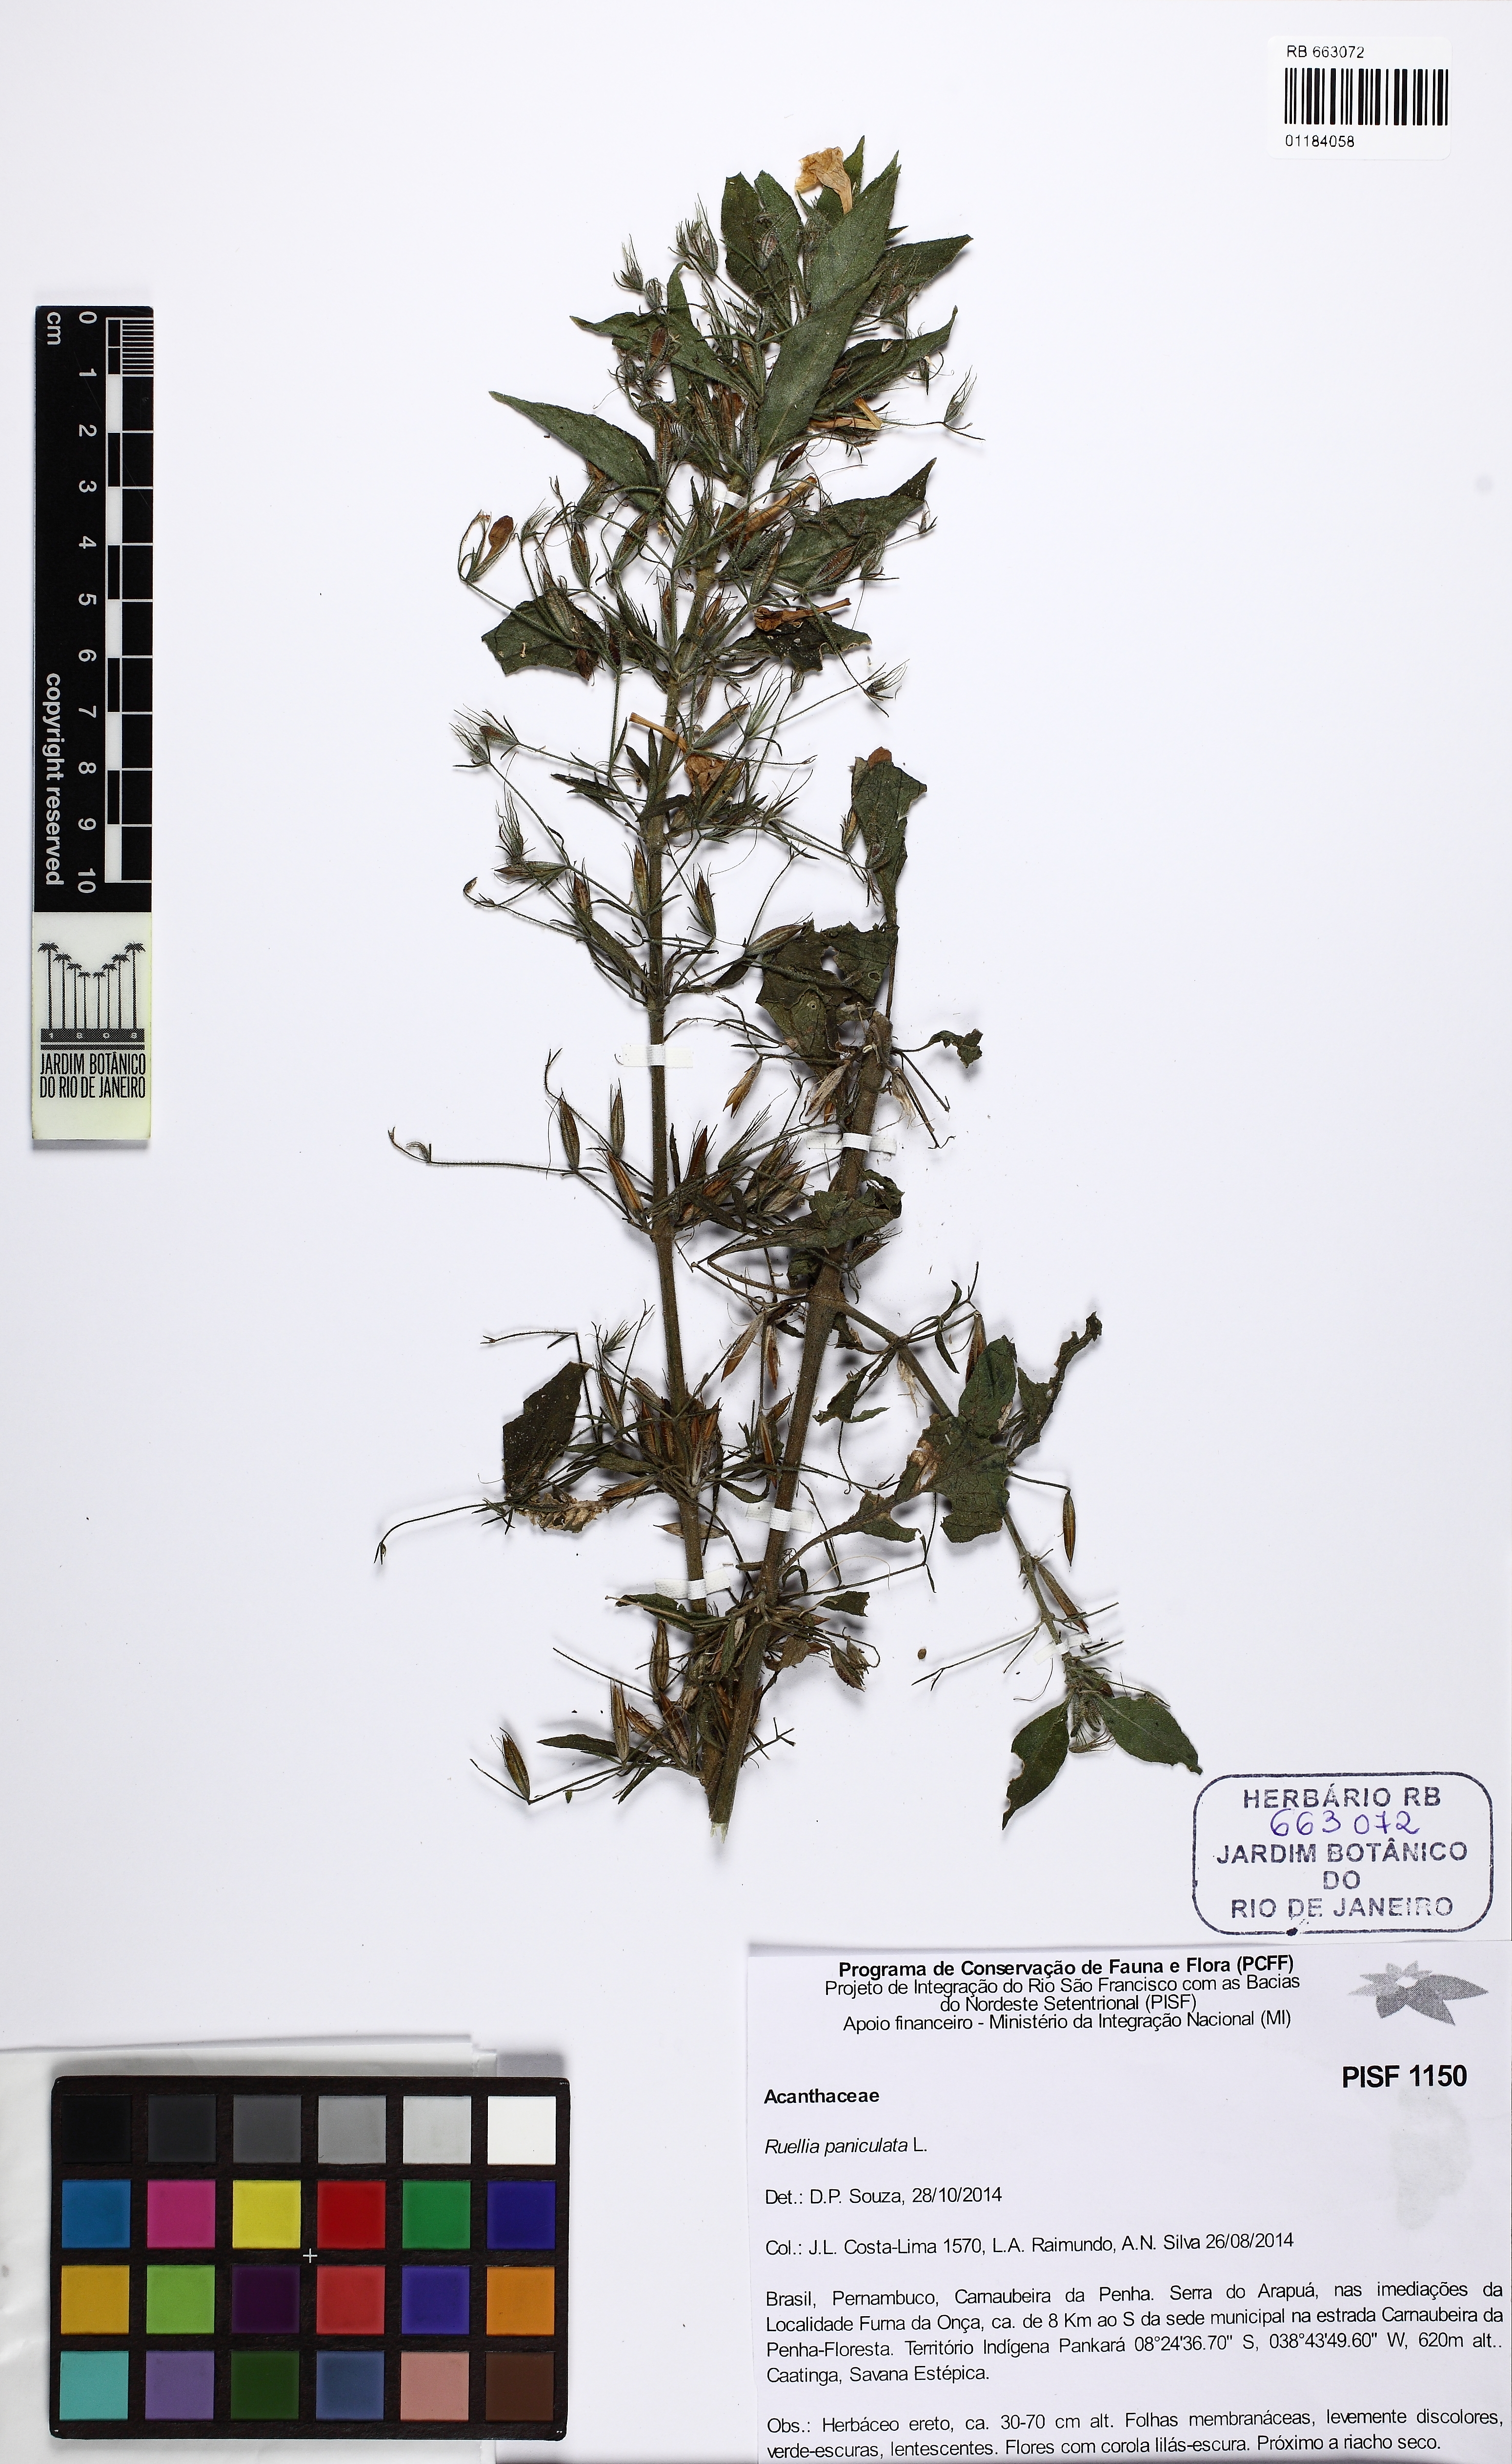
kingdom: Plantae
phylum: Tracheophyta
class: Magnoliopsida
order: Lamiales
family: Acanthaceae
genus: Ruellia
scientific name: Ruellia paniculata
